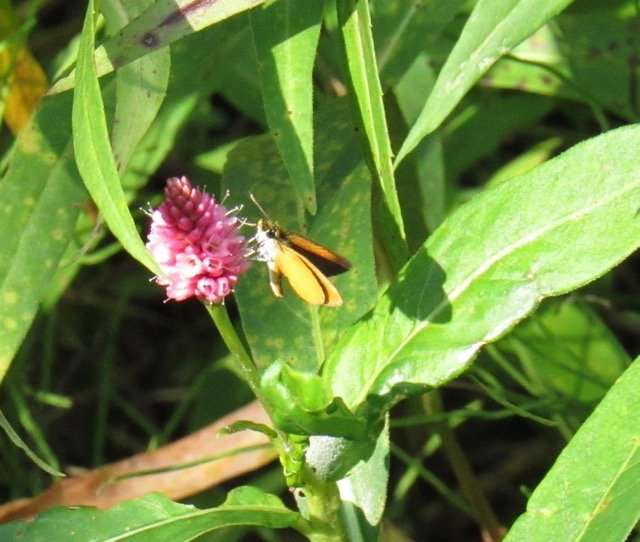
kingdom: Animalia
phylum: Arthropoda
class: Insecta
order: Lepidoptera
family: Hesperiidae
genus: Ancyloxypha
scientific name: Ancyloxypha numitor
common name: Least Skipper
